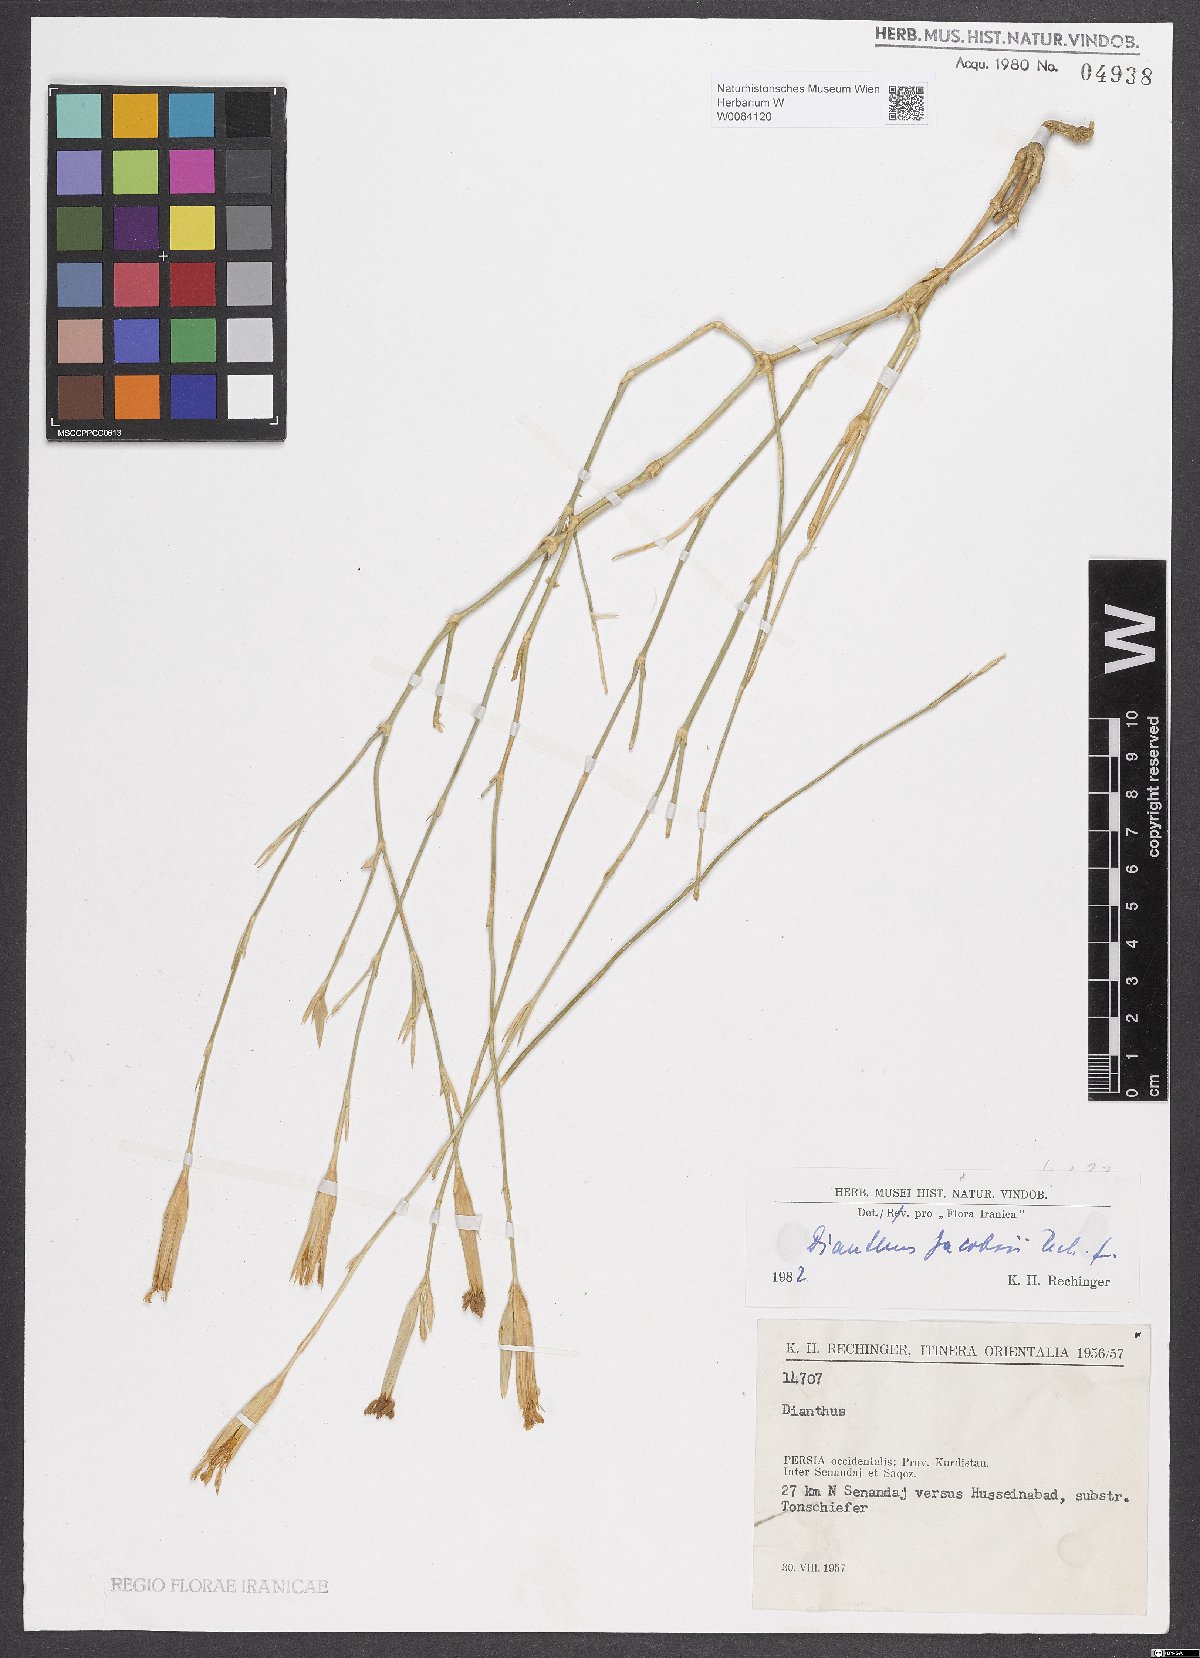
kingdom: Plantae
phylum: Tracheophyta
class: Magnoliopsida
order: Caryophyllales
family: Caryophyllaceae
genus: Dianthus
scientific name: Dianthus jacobsii
